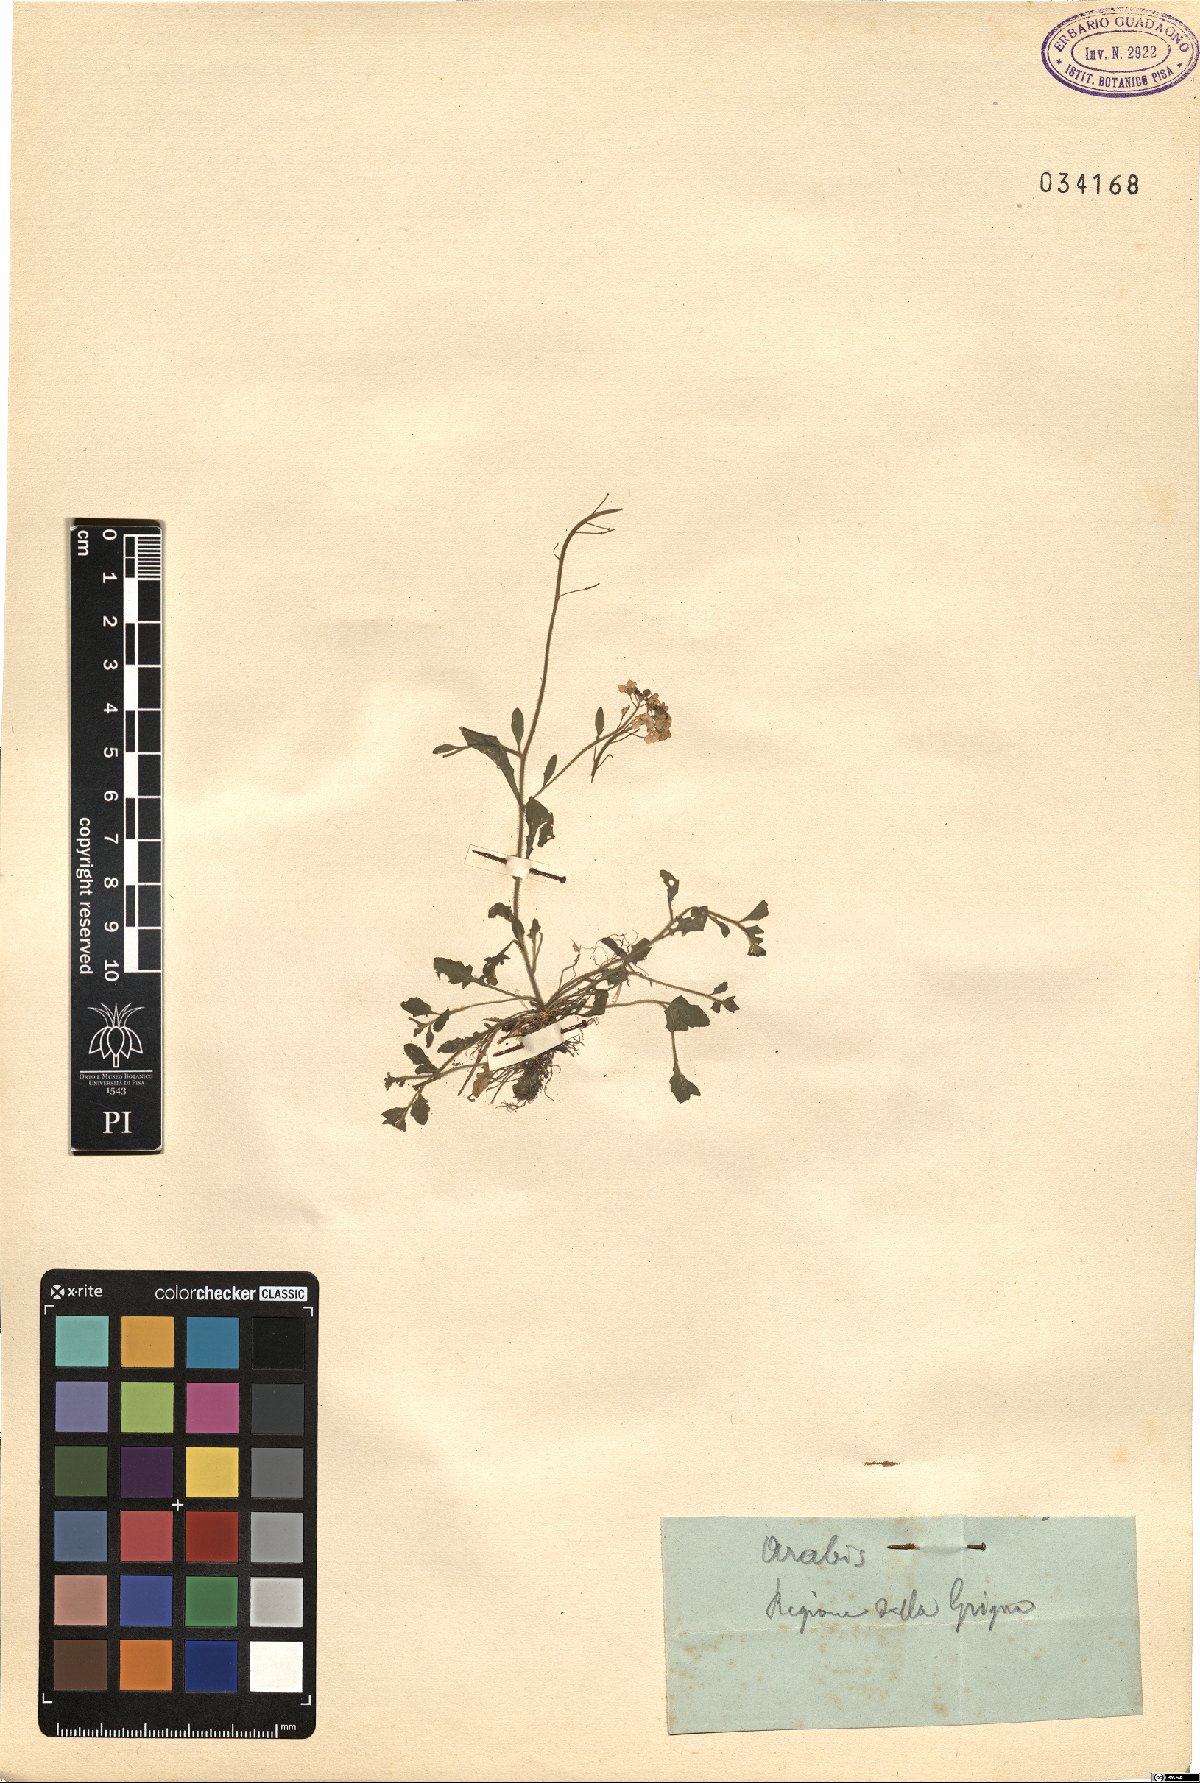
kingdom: Plantae
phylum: Tracheophyta
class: Magnoliopsida
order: Brassicales
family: Brassicaceae
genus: Arabis
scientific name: Arabis
